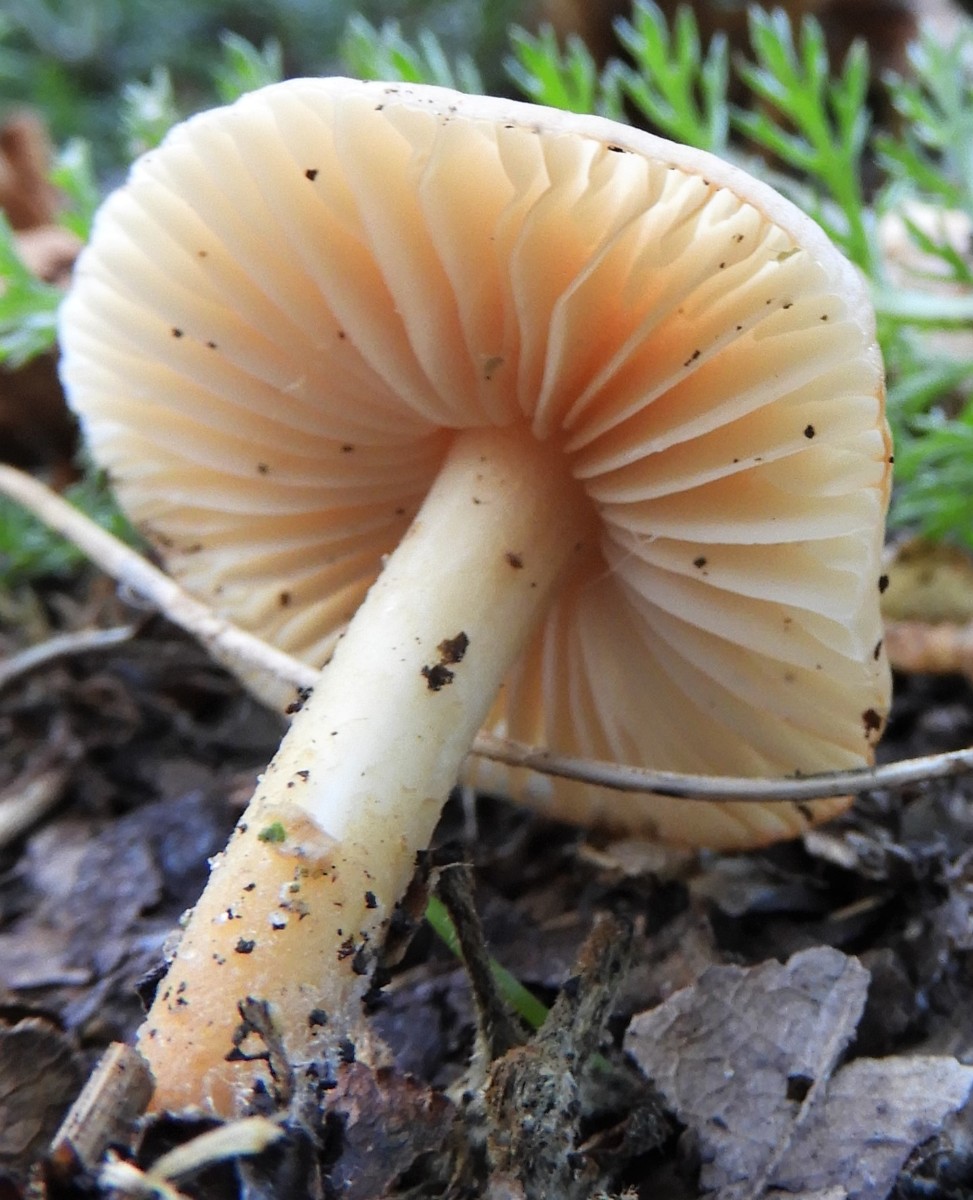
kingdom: Fungi
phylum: Basidiomycota
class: Agaricomycetes
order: Agaricales
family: Marasmiaceae
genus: Marasmius
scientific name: Marasmius oreades
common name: elledans-bruskhat
